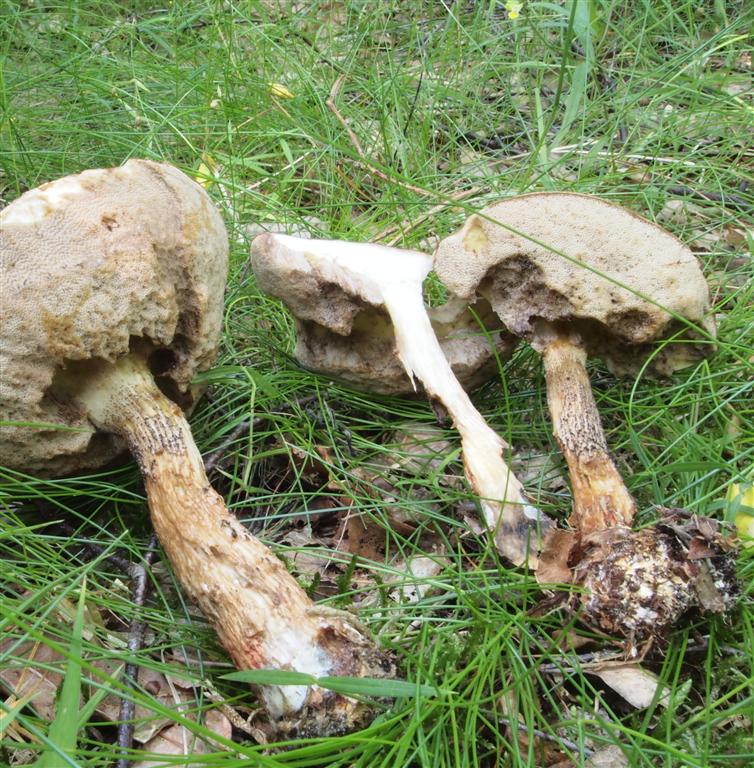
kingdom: Fungi
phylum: Basidiomycota
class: Agaricomycetes
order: Boletales
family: Boletaceae
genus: Leccinum
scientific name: Leccinum scabrum
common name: brun skælrørhat
